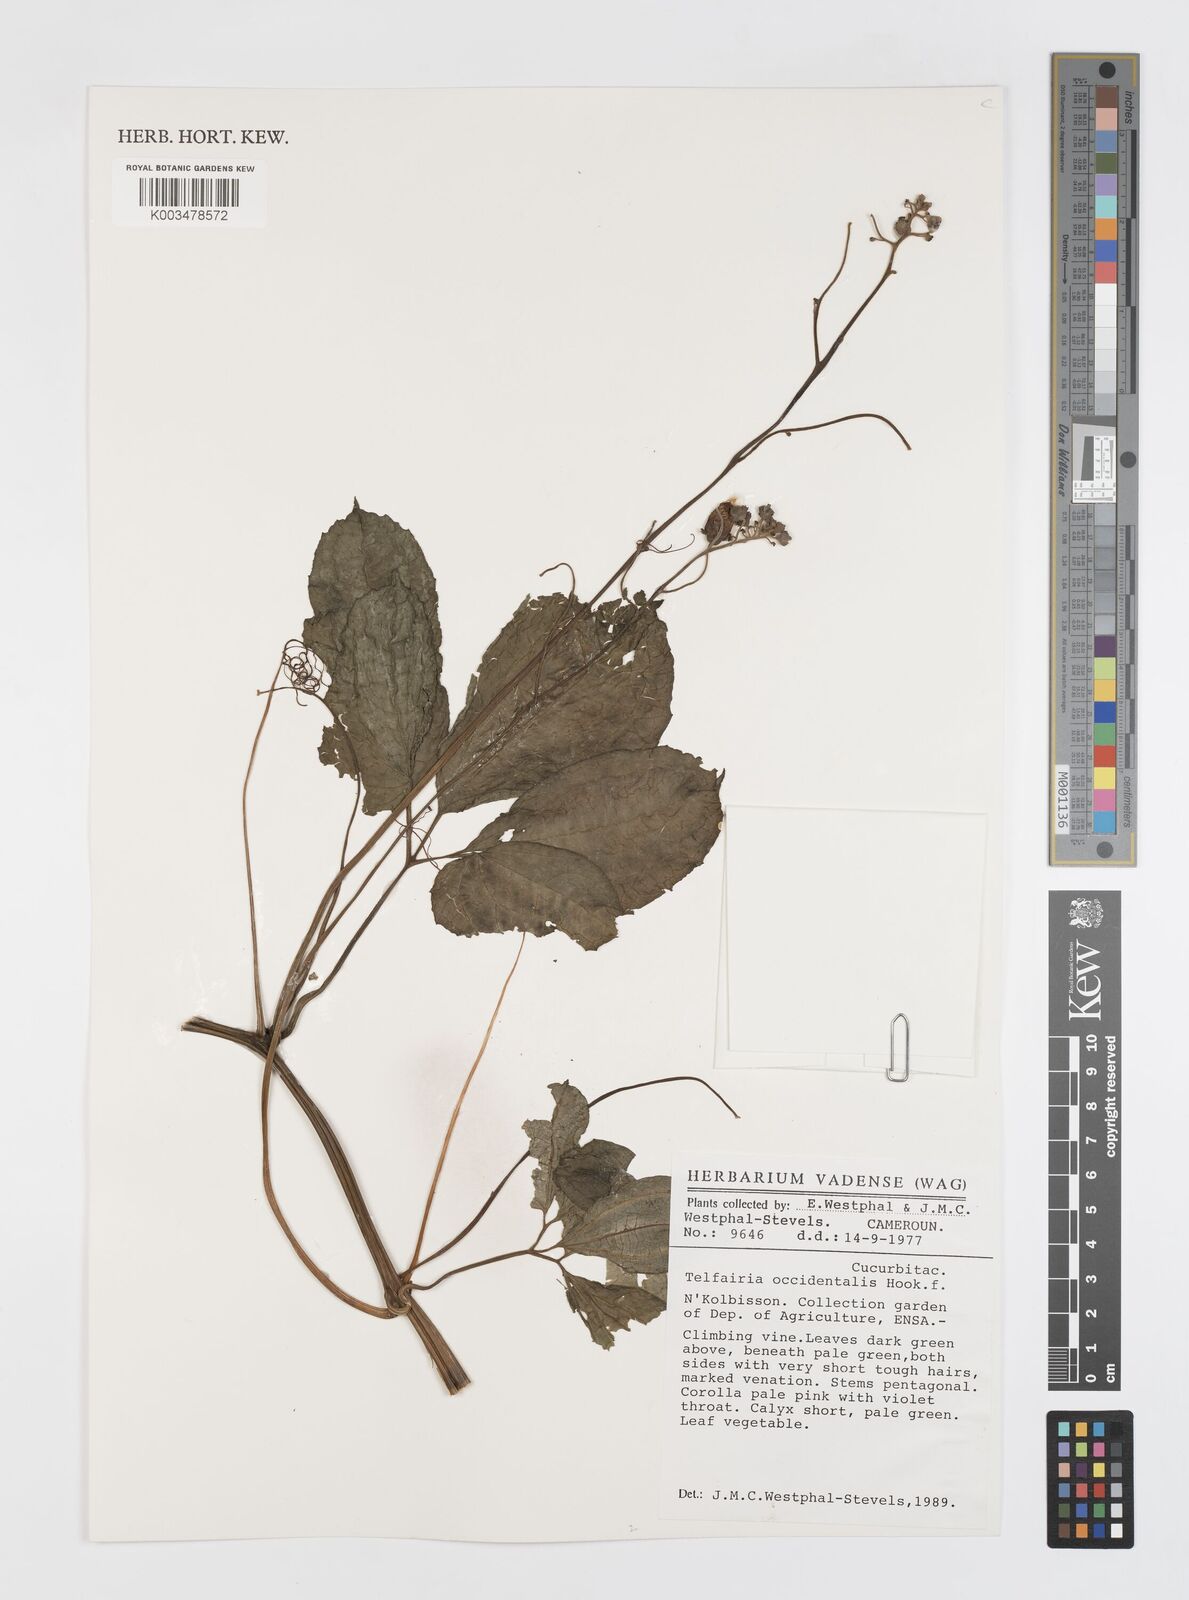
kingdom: Plantae
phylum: Tracheophyta
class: Magnoliopsida
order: Cucurbitales
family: Cucurbitaceae
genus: Telfairia
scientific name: Telfairia occidentalis
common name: Oysternut
